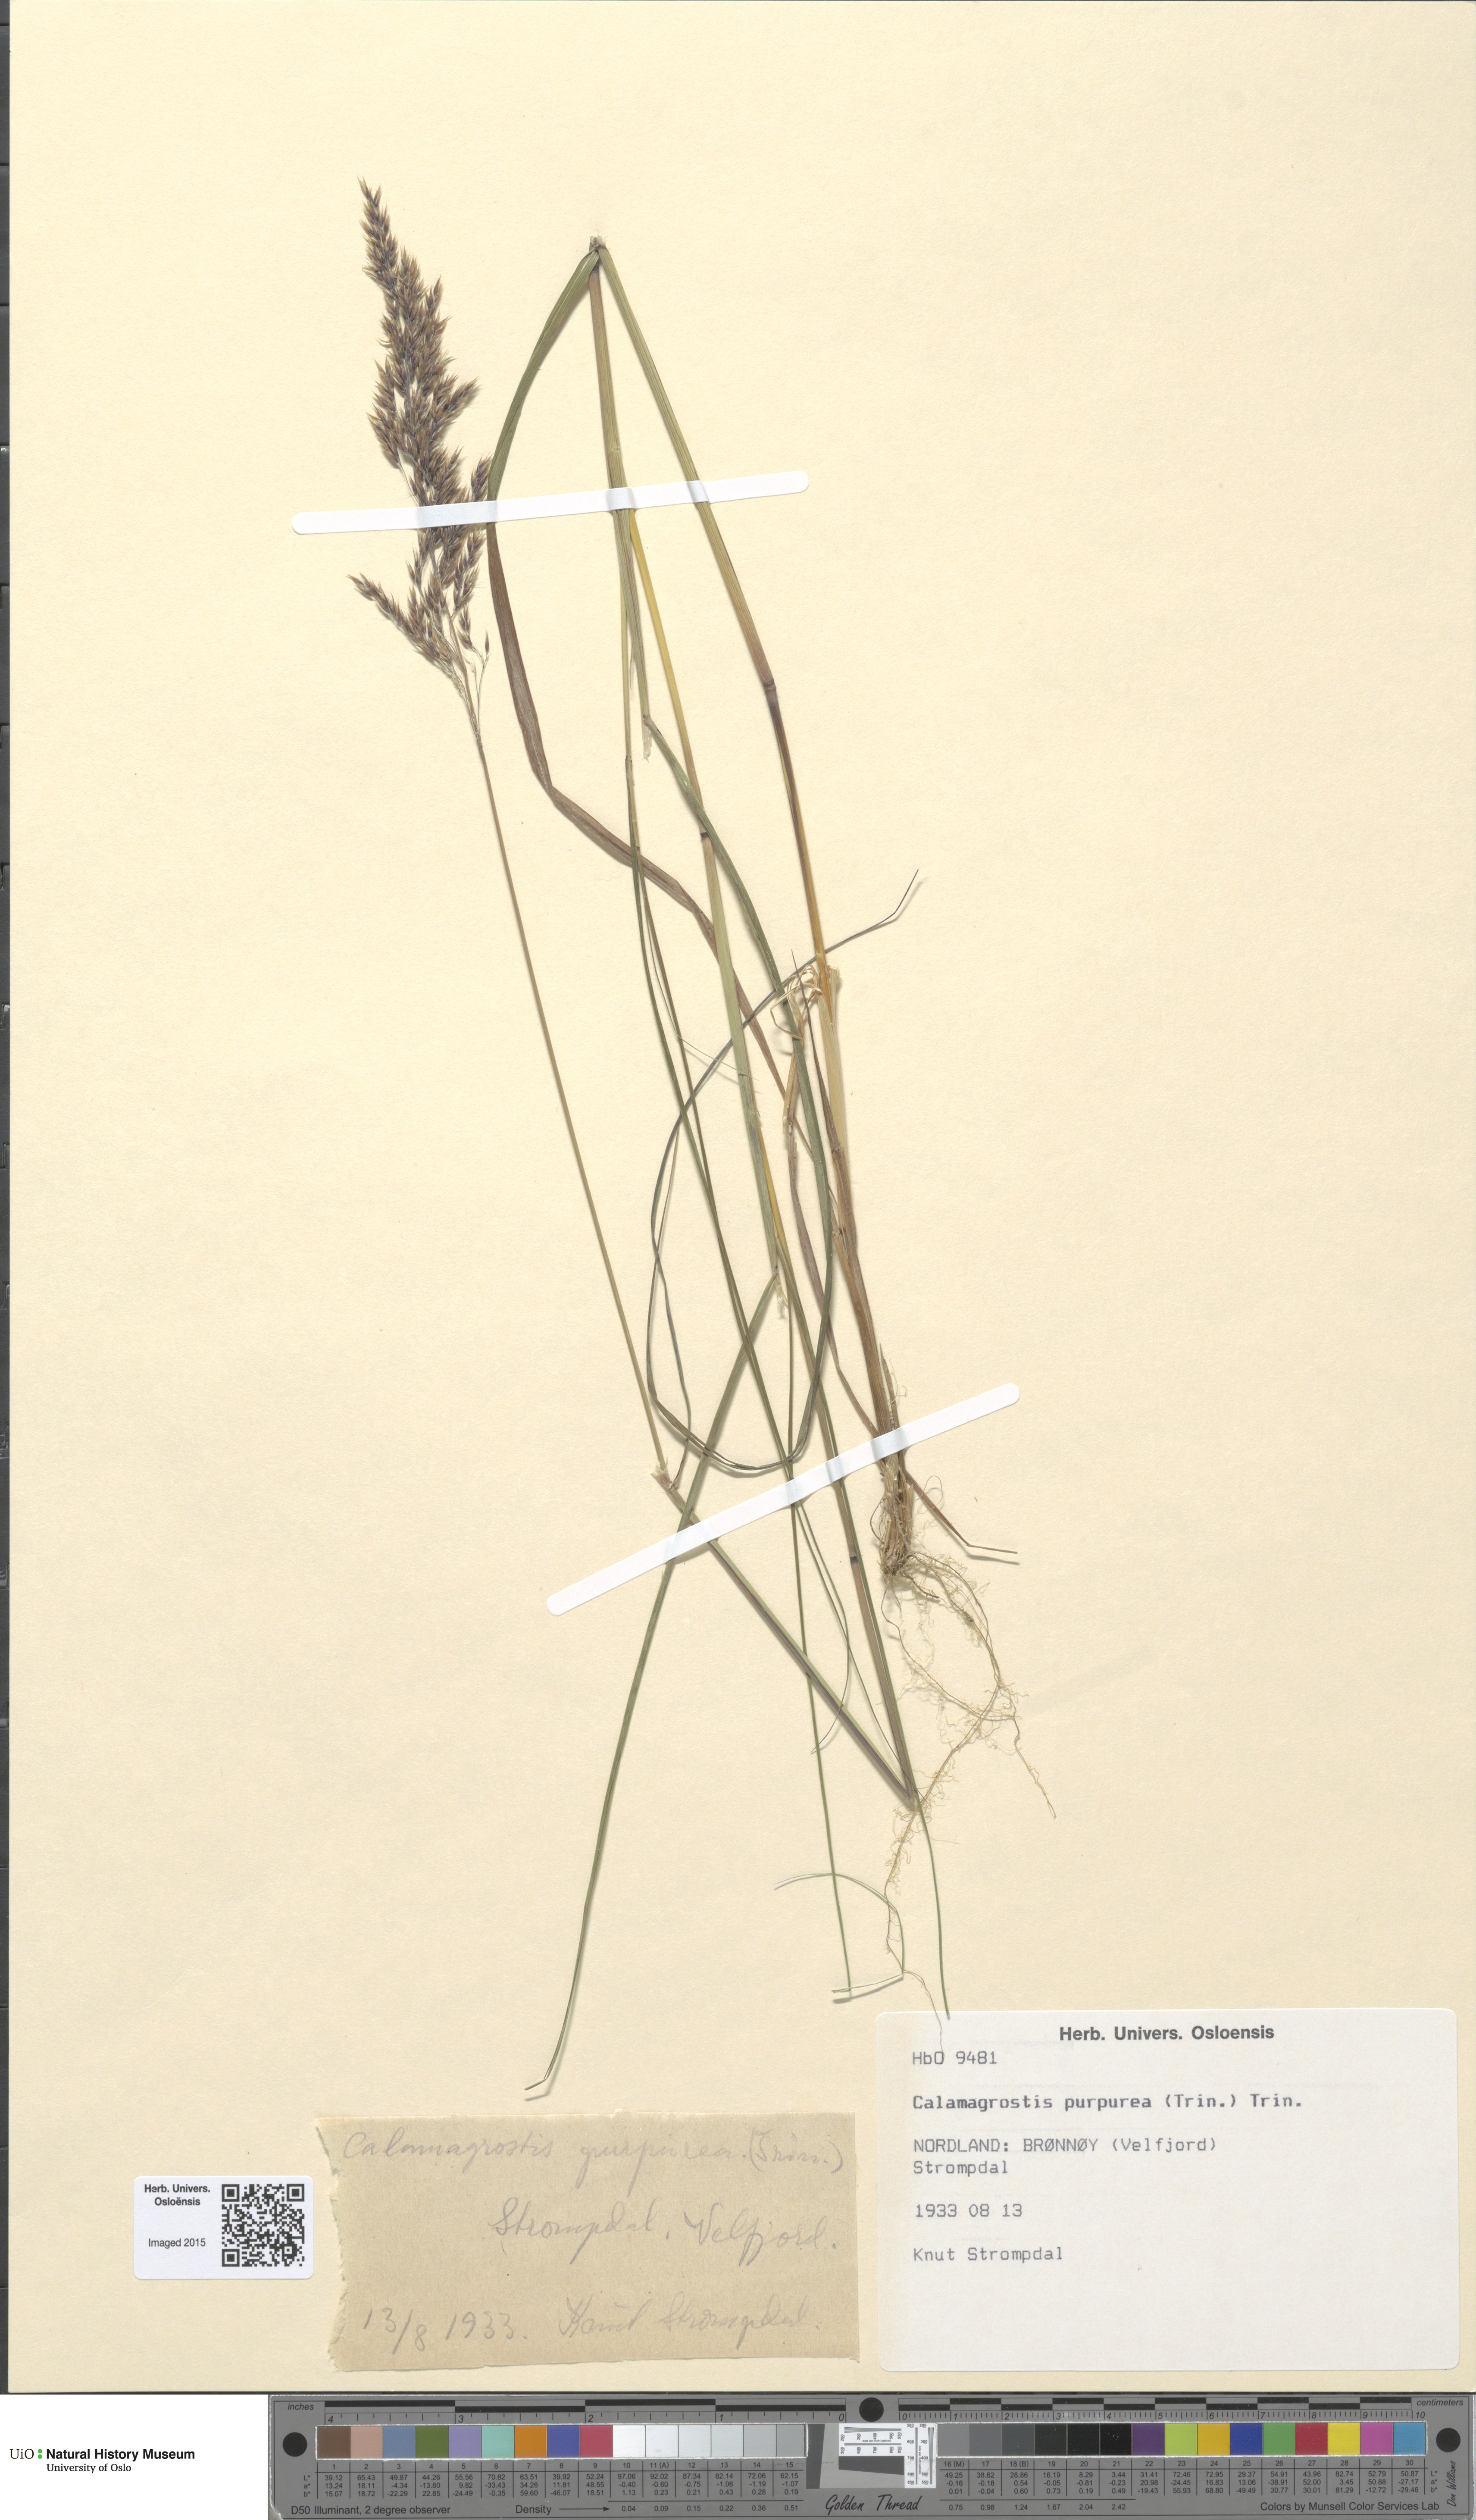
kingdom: Plantae
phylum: Tracheophyta
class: Liliopsida
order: Poales
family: Poaceae
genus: Calamagrostis
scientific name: Calamagrostis purpurea
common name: Scandinavian small-reed
